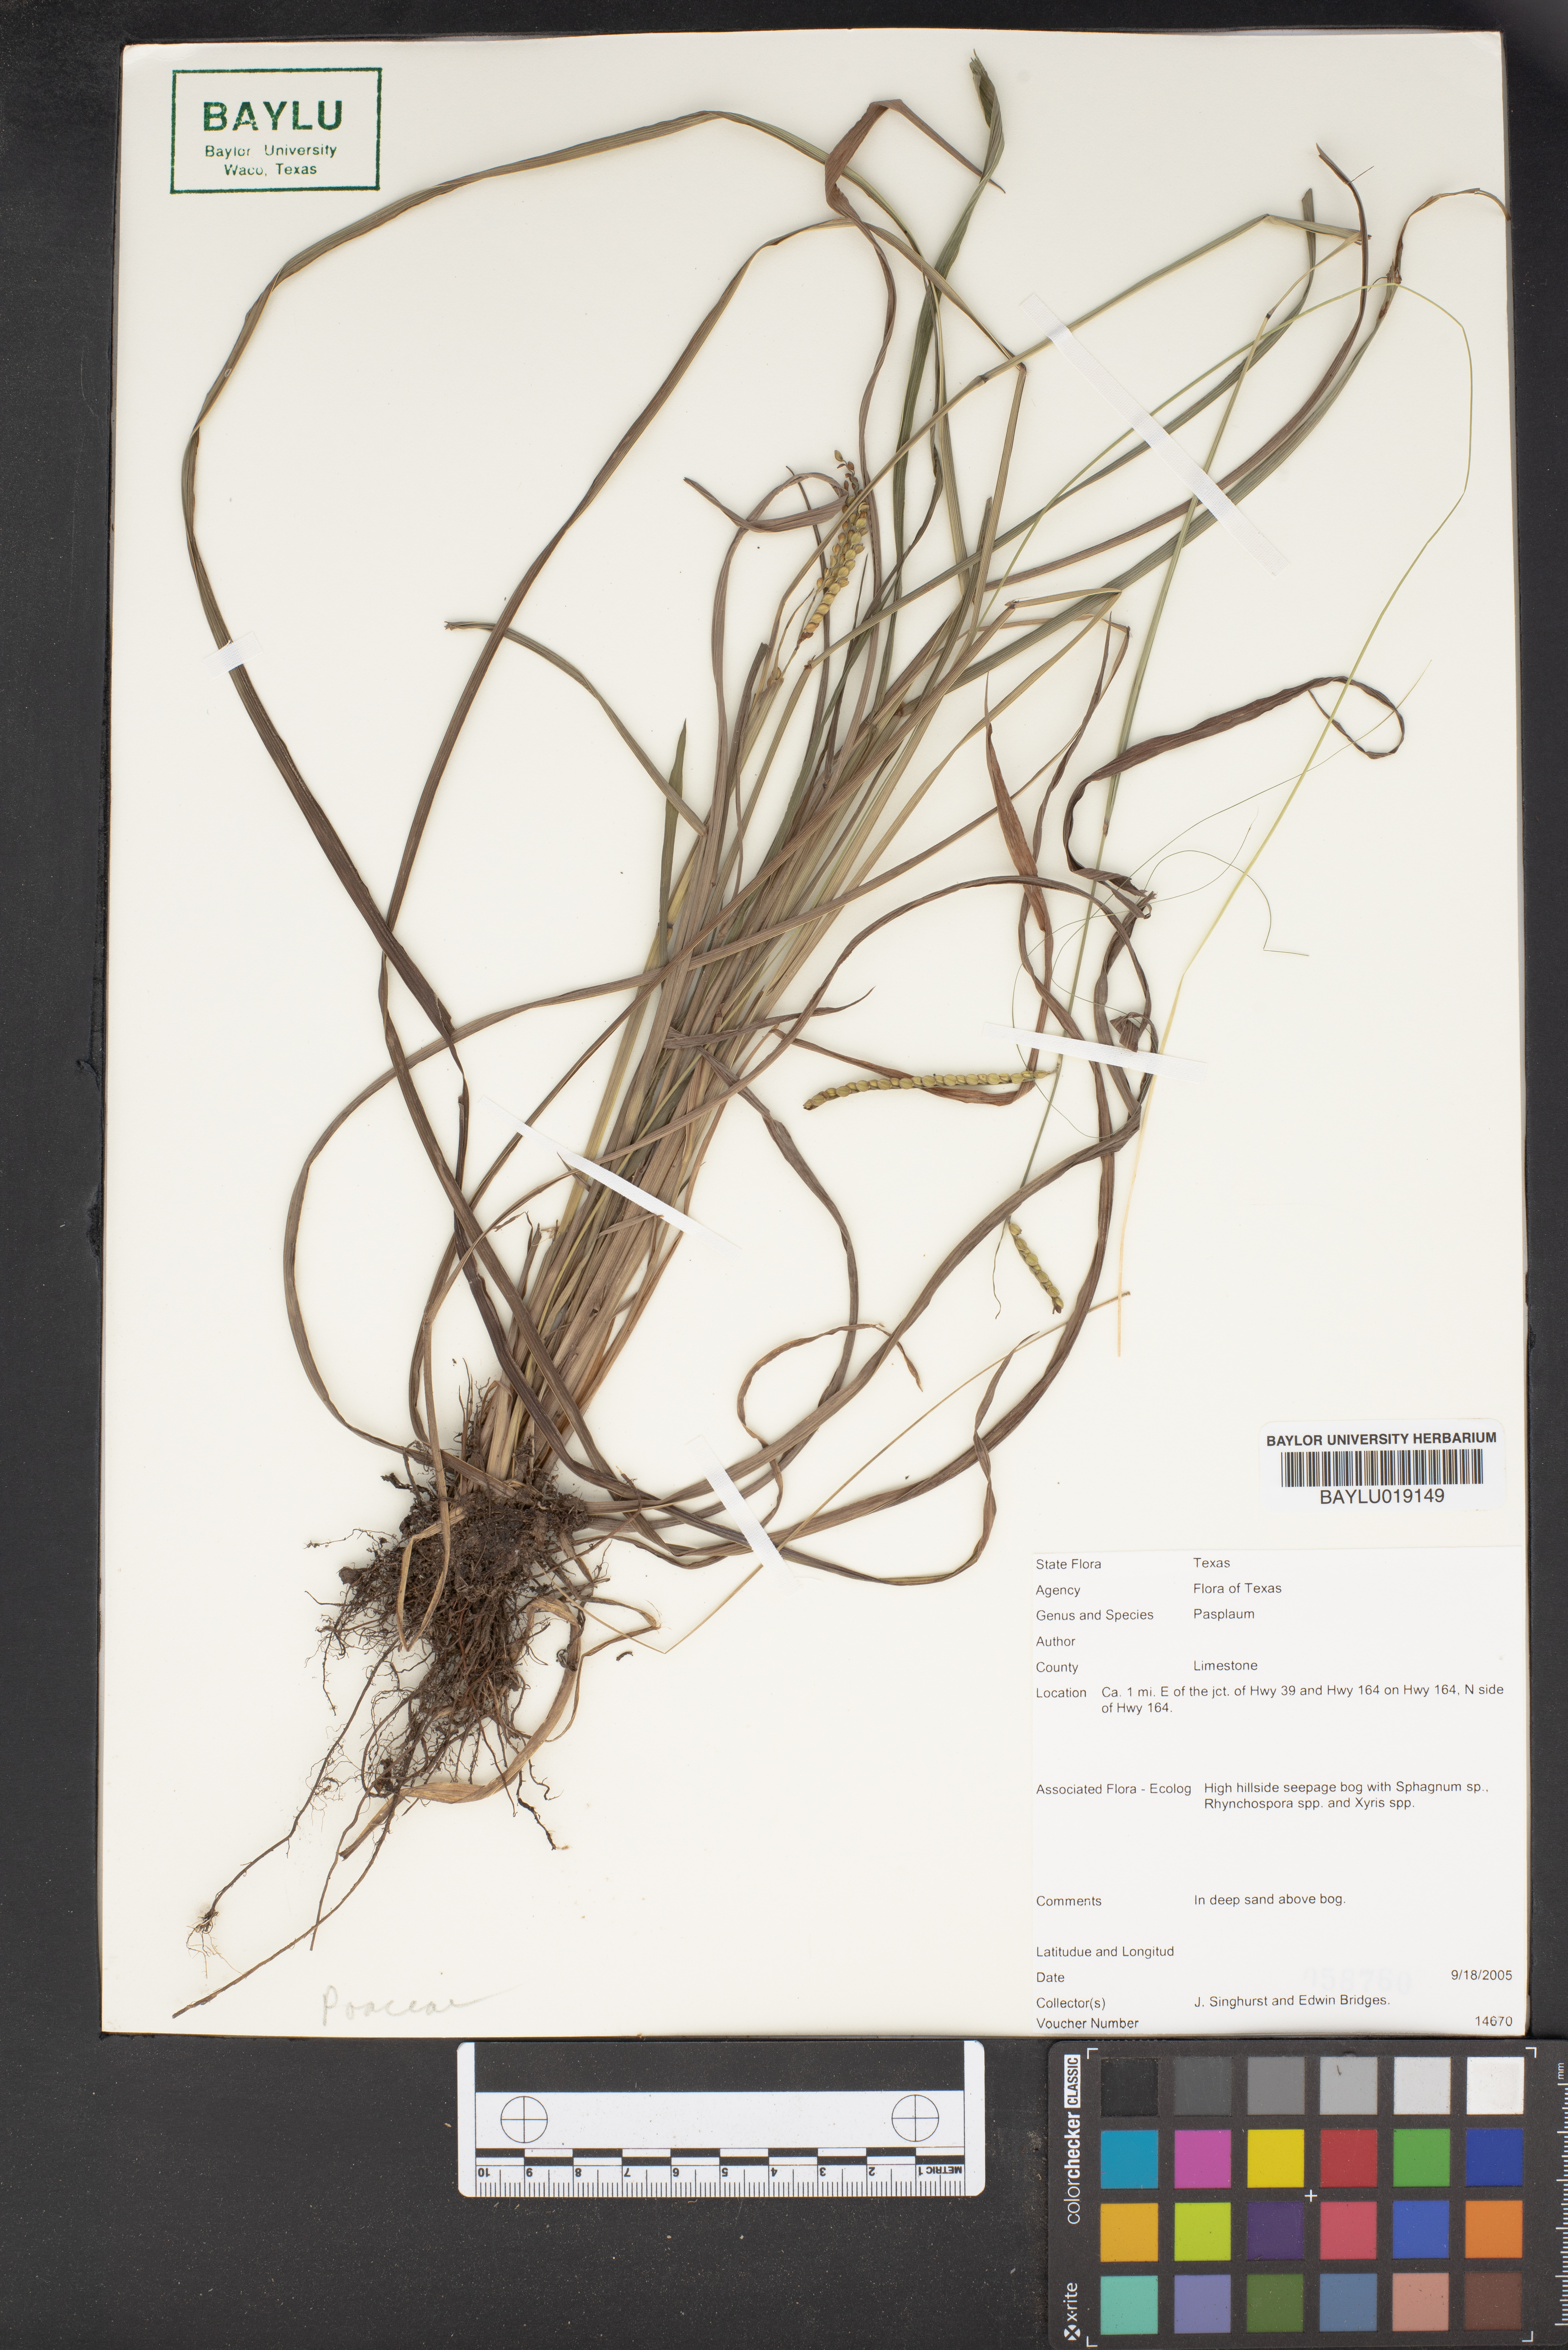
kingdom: Plantae
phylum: Tracheophyta
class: Liliopsida
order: Poales
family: Poaceae
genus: Paspalum
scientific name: Paspalum
